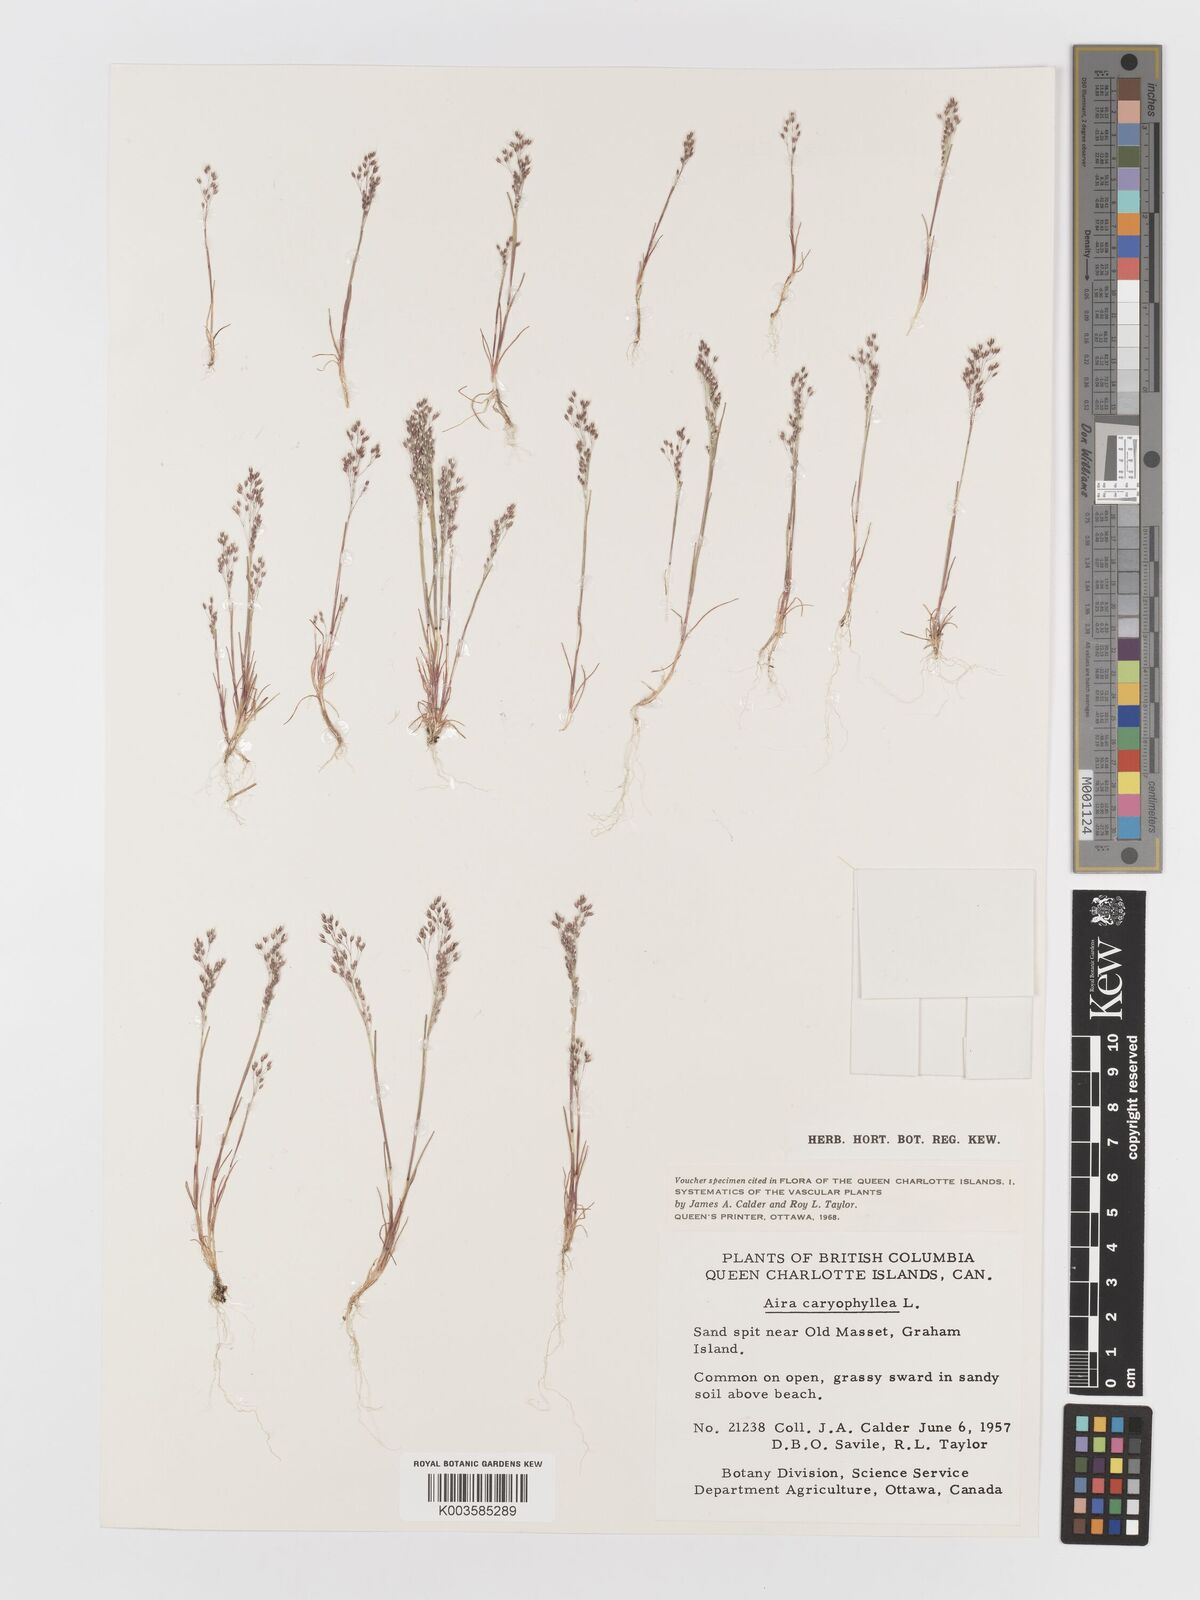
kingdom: Plantae
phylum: Tracheophyta
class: Liliopsida
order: Poales
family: Poaceae
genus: Aira
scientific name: Aira caryophyllea
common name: Silver hairgrass
